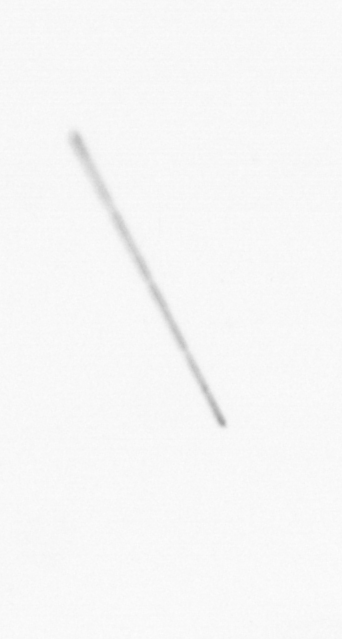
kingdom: Chromista
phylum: Ochrophyta
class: Bacillariophyceae
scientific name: Bacillariophyceae
